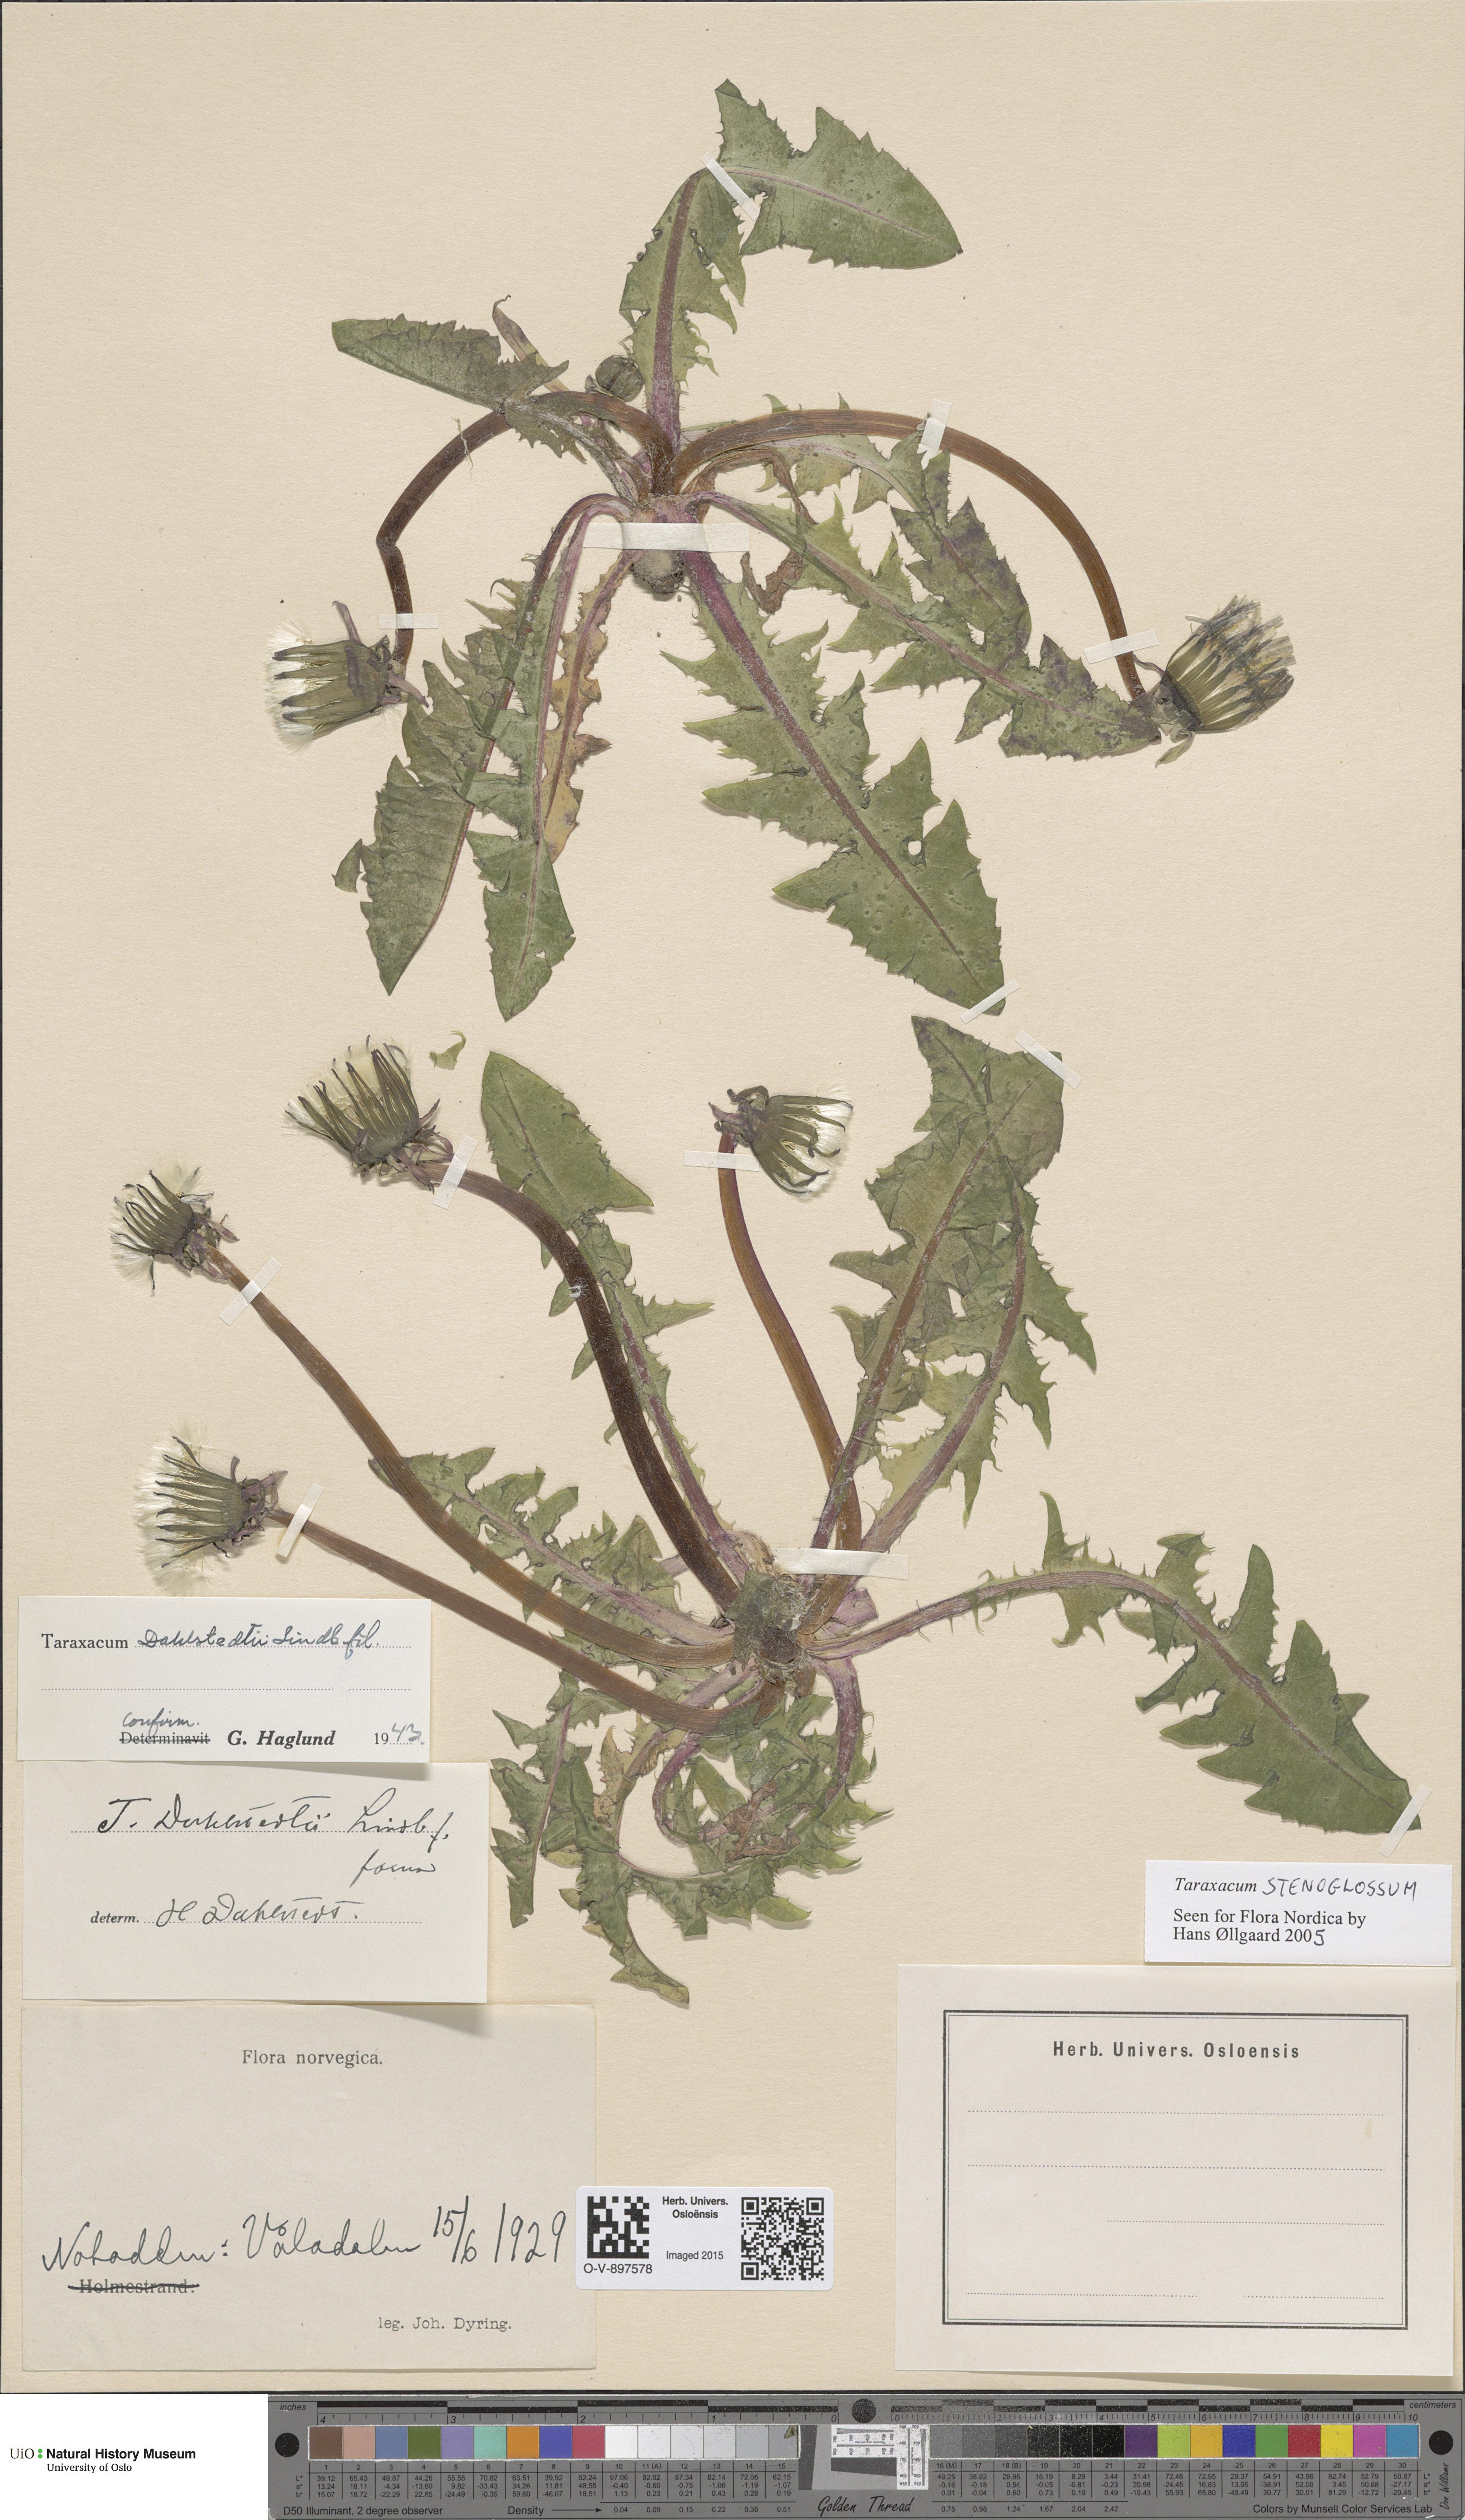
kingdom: Plantae
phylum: Tracheophyta
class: Magnoliopsida
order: Asterales
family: Asteraceae
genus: Taraxacum
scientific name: Taraxacum stenoglossum
